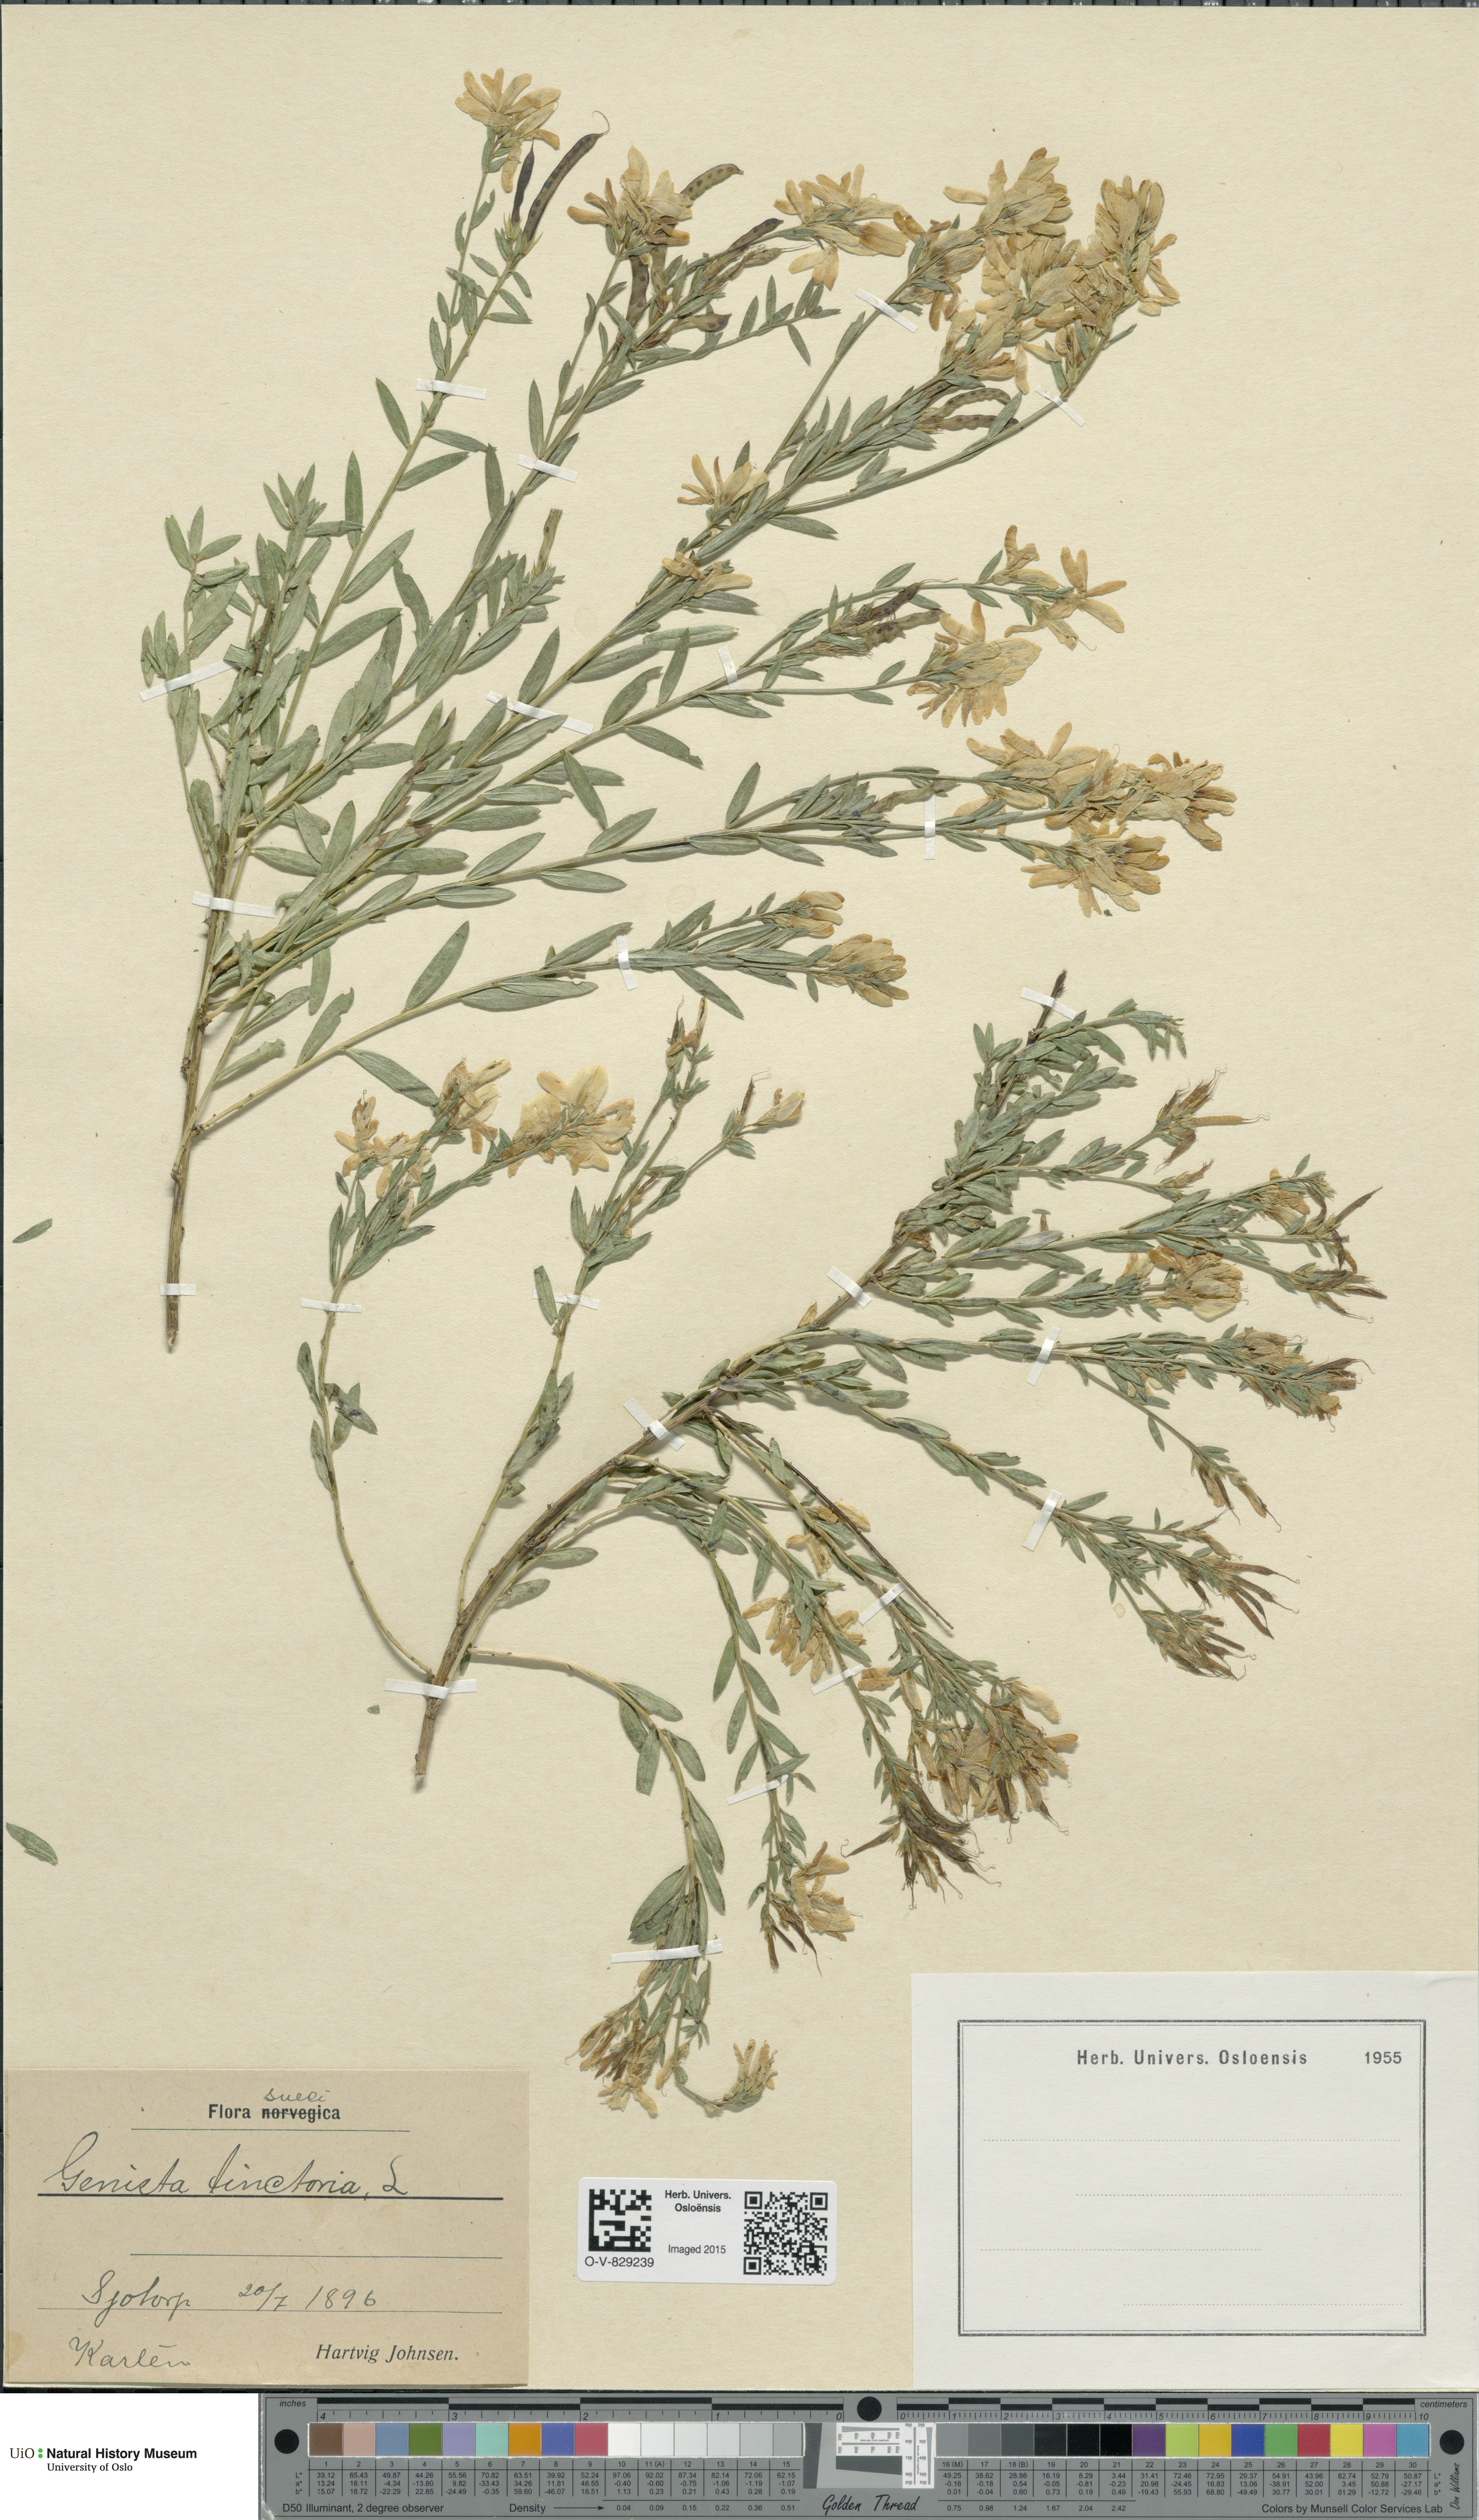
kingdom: Plantae
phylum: Tracheophyta
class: Magnoliopsida
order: Fabales
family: Fabaceae
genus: Genista
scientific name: Genista tinctoria
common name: Dyer's greenweed
